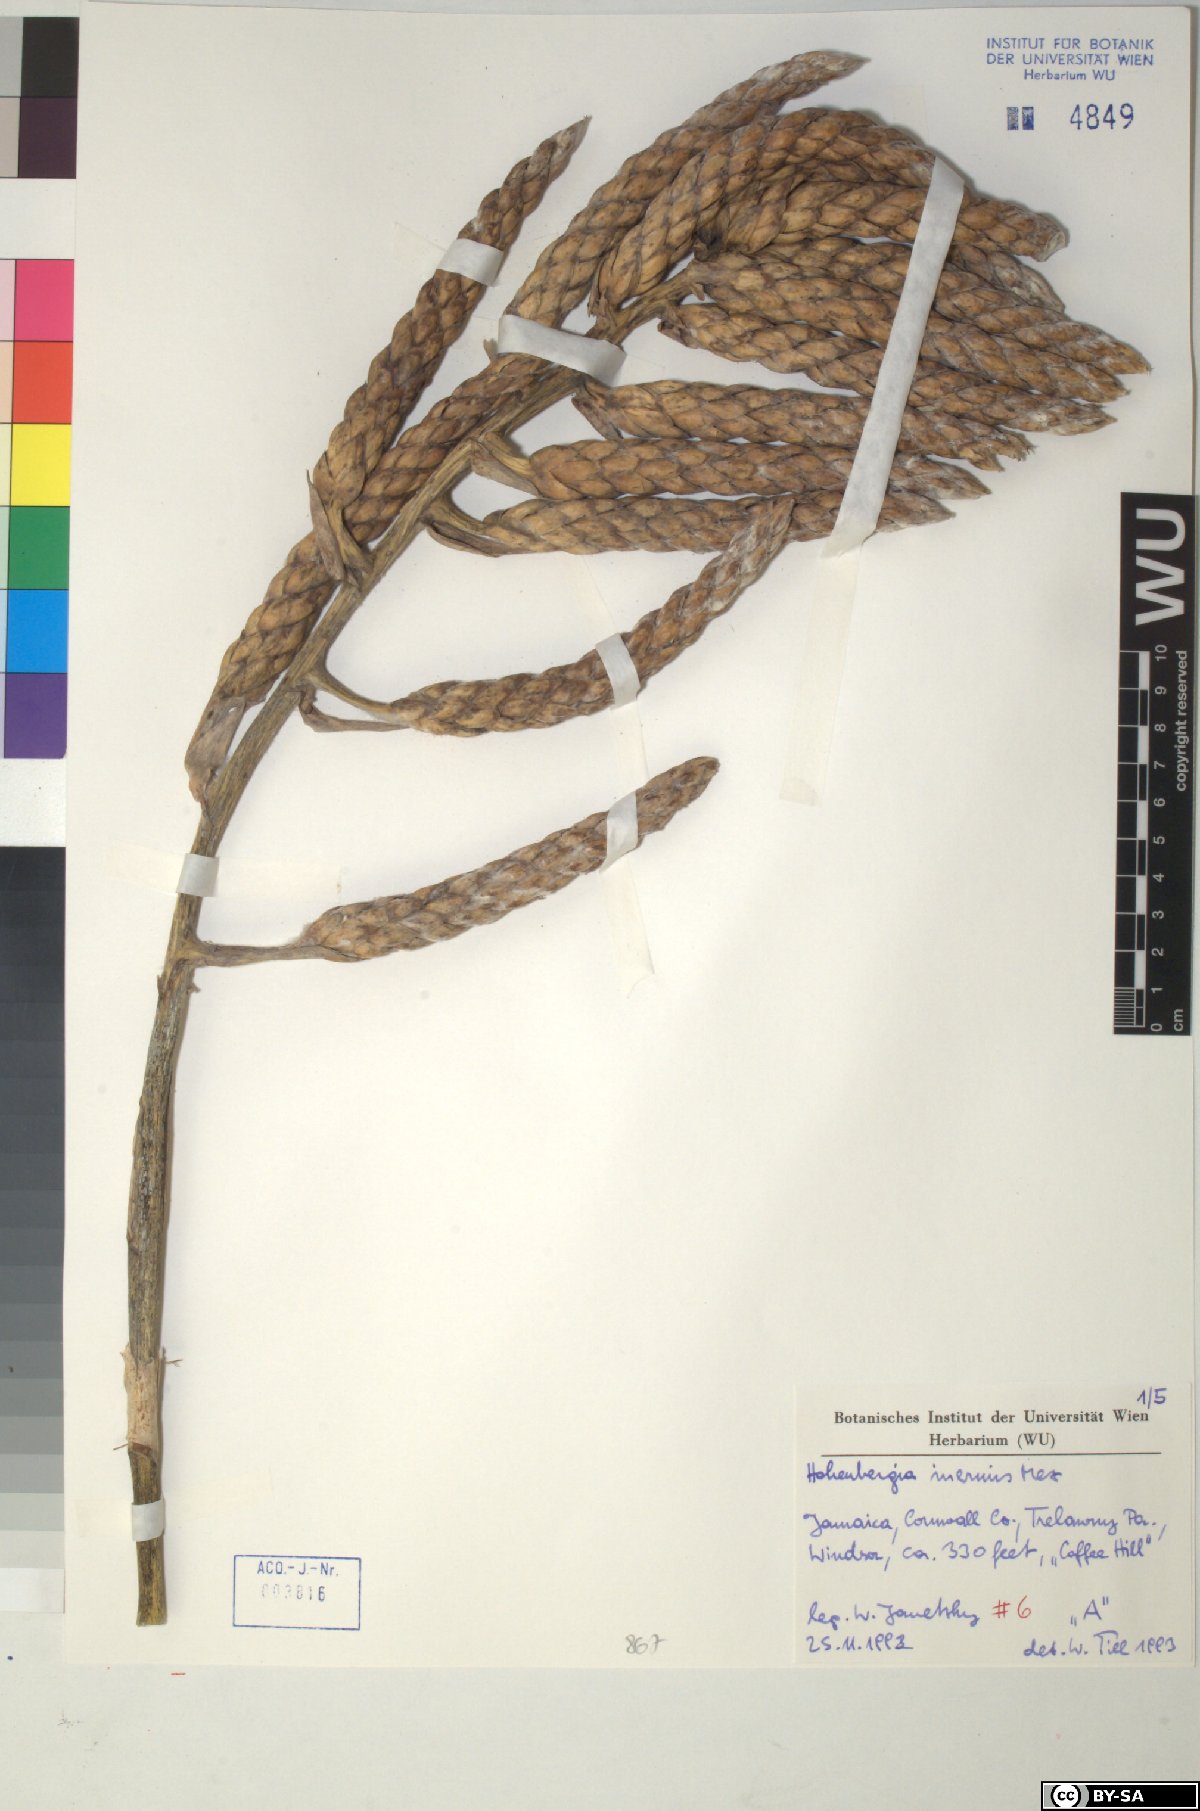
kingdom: Plantae
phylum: Tracheophyta
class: Liliopsida
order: Poales
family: Bromeliaceae
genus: Wittmackia
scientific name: Wittmackia inermis
